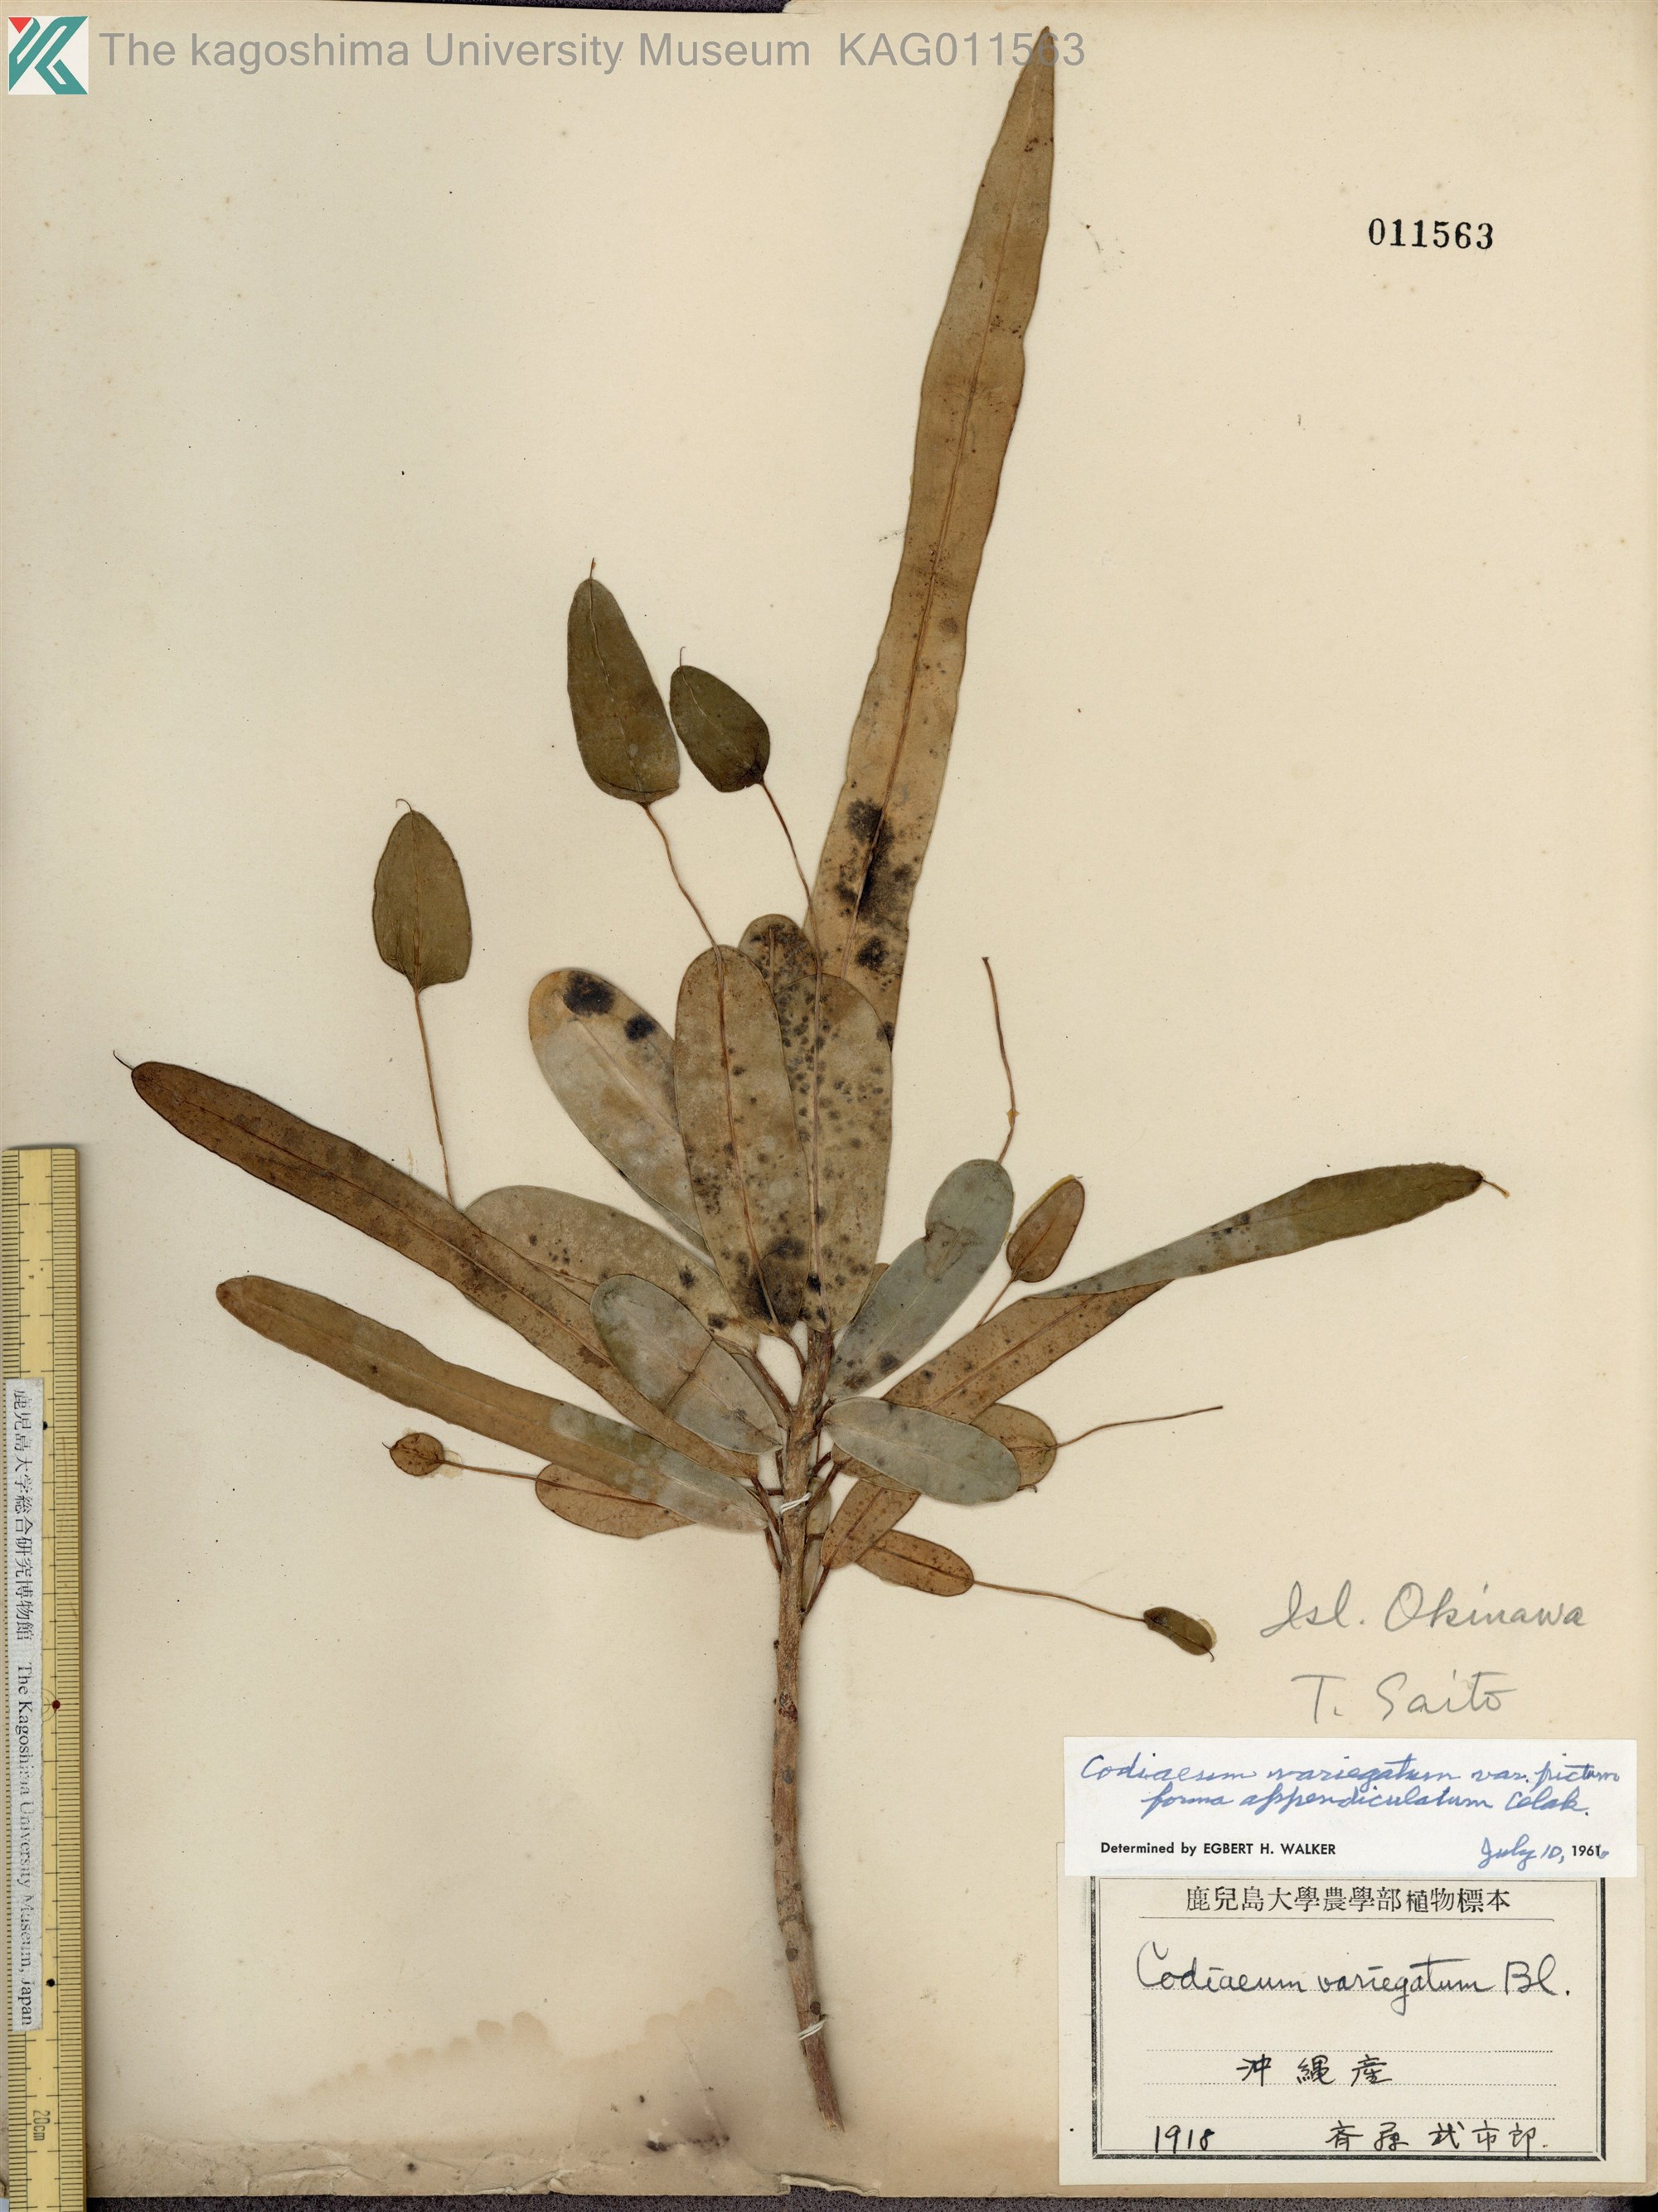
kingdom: Plantae
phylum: Tracheophyta
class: Magnoliopsida
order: Malpighiales
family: Euphorbiaceae
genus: Codiaeum
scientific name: Codiaeum variegatum
